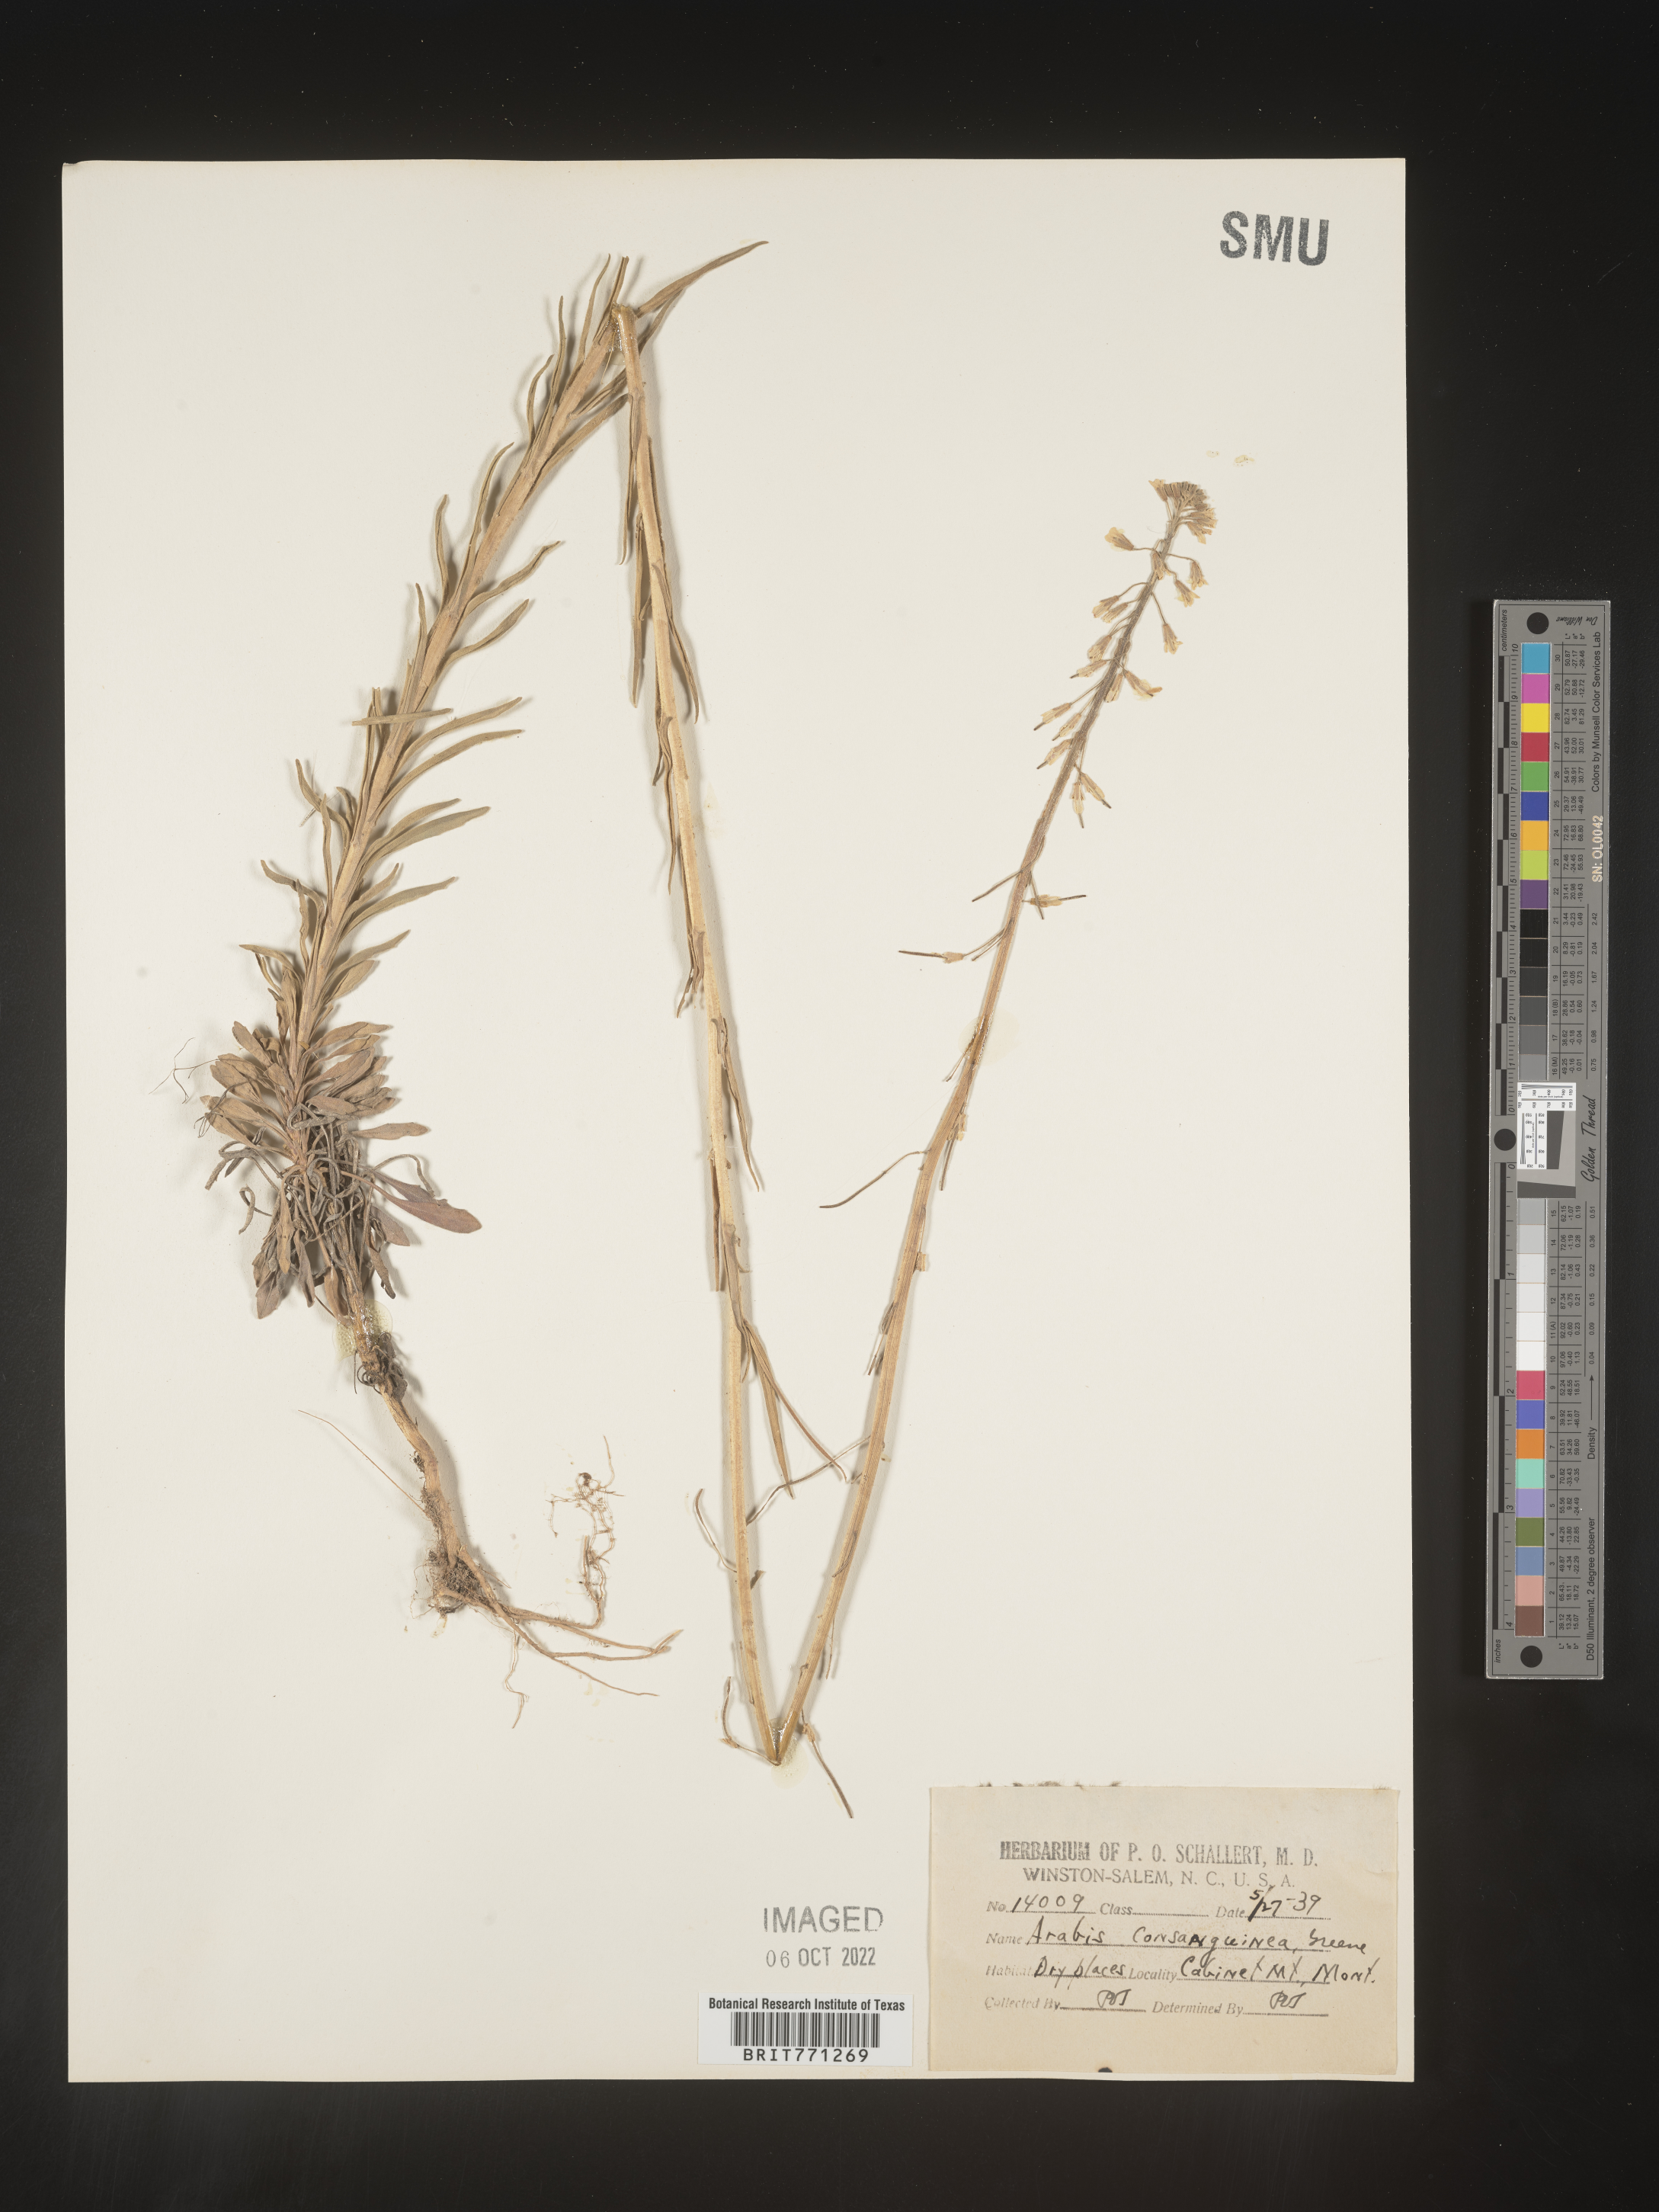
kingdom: Plantae
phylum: Tracheophyta
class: Magnoliopsida
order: Brassicales
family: Brassicaceae
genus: Arabis
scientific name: Arabis
